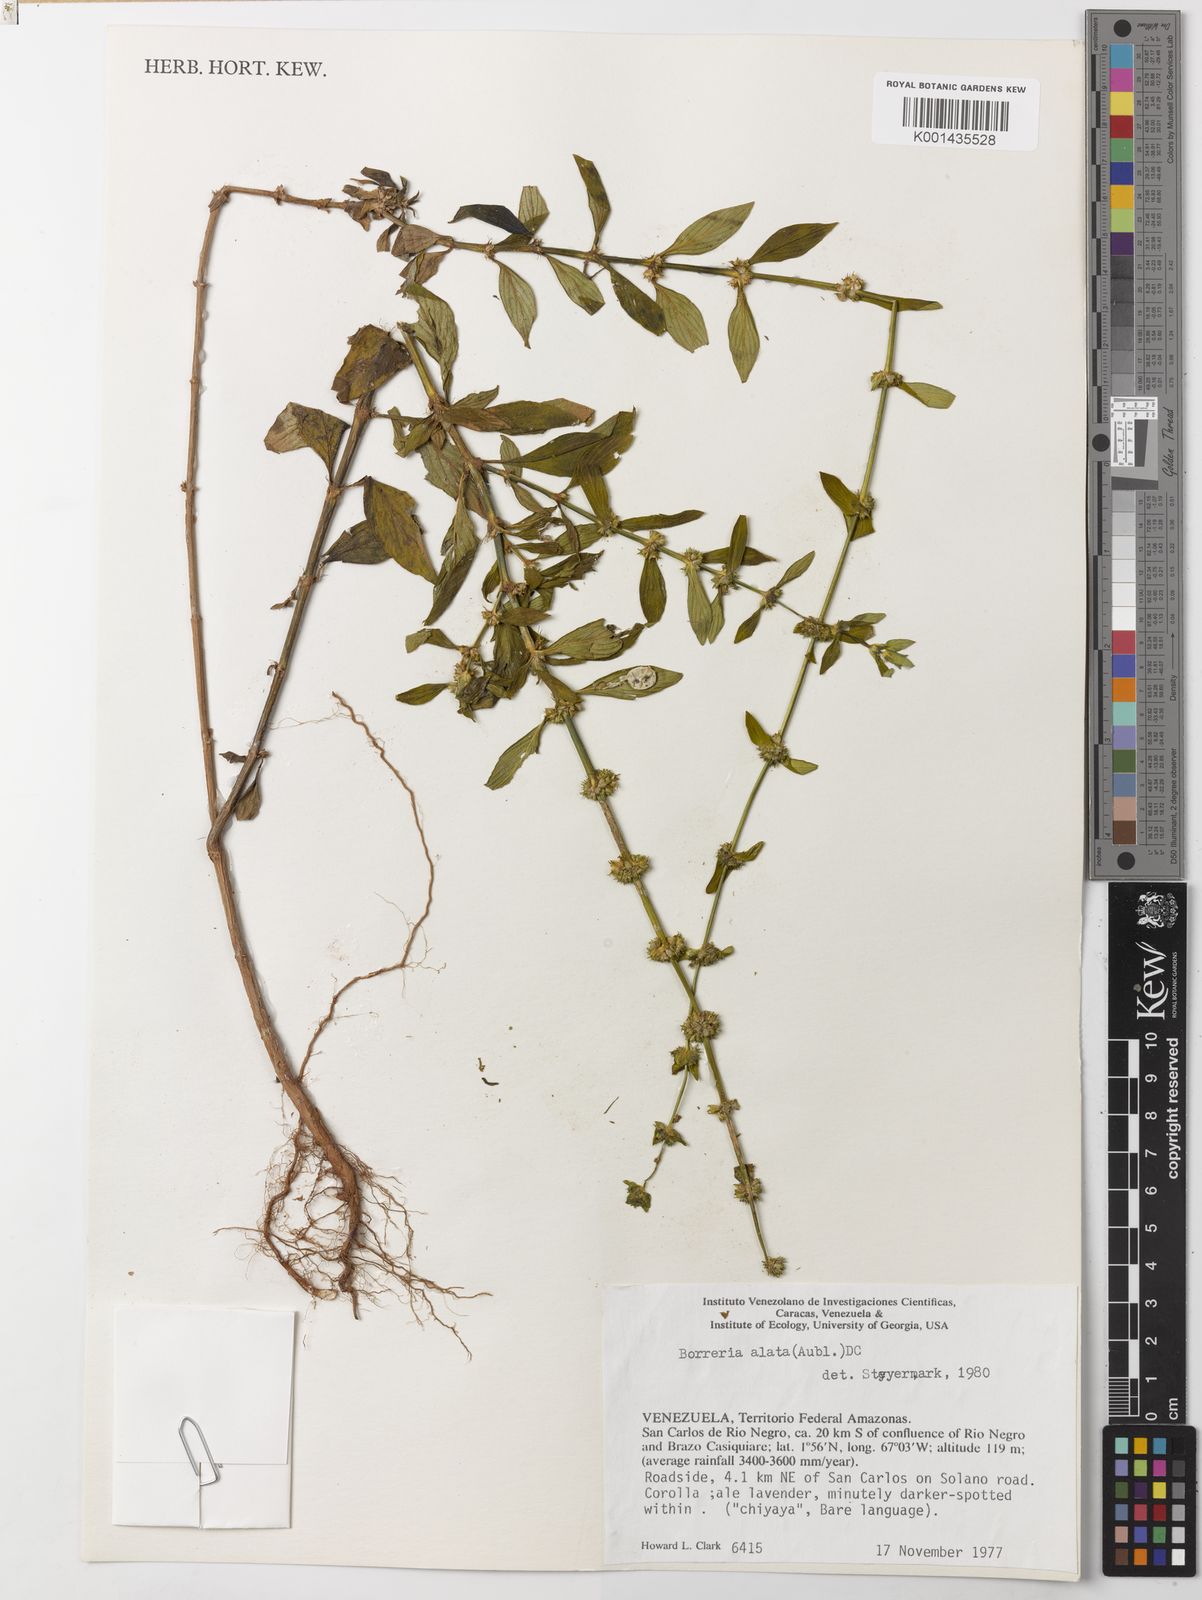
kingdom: Plantae
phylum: Tracheophyta
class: Magnoliopsida
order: Gentianales
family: Rubiaceae
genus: Spermacoce
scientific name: Spermacoce alata
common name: Winged false buttonweed
